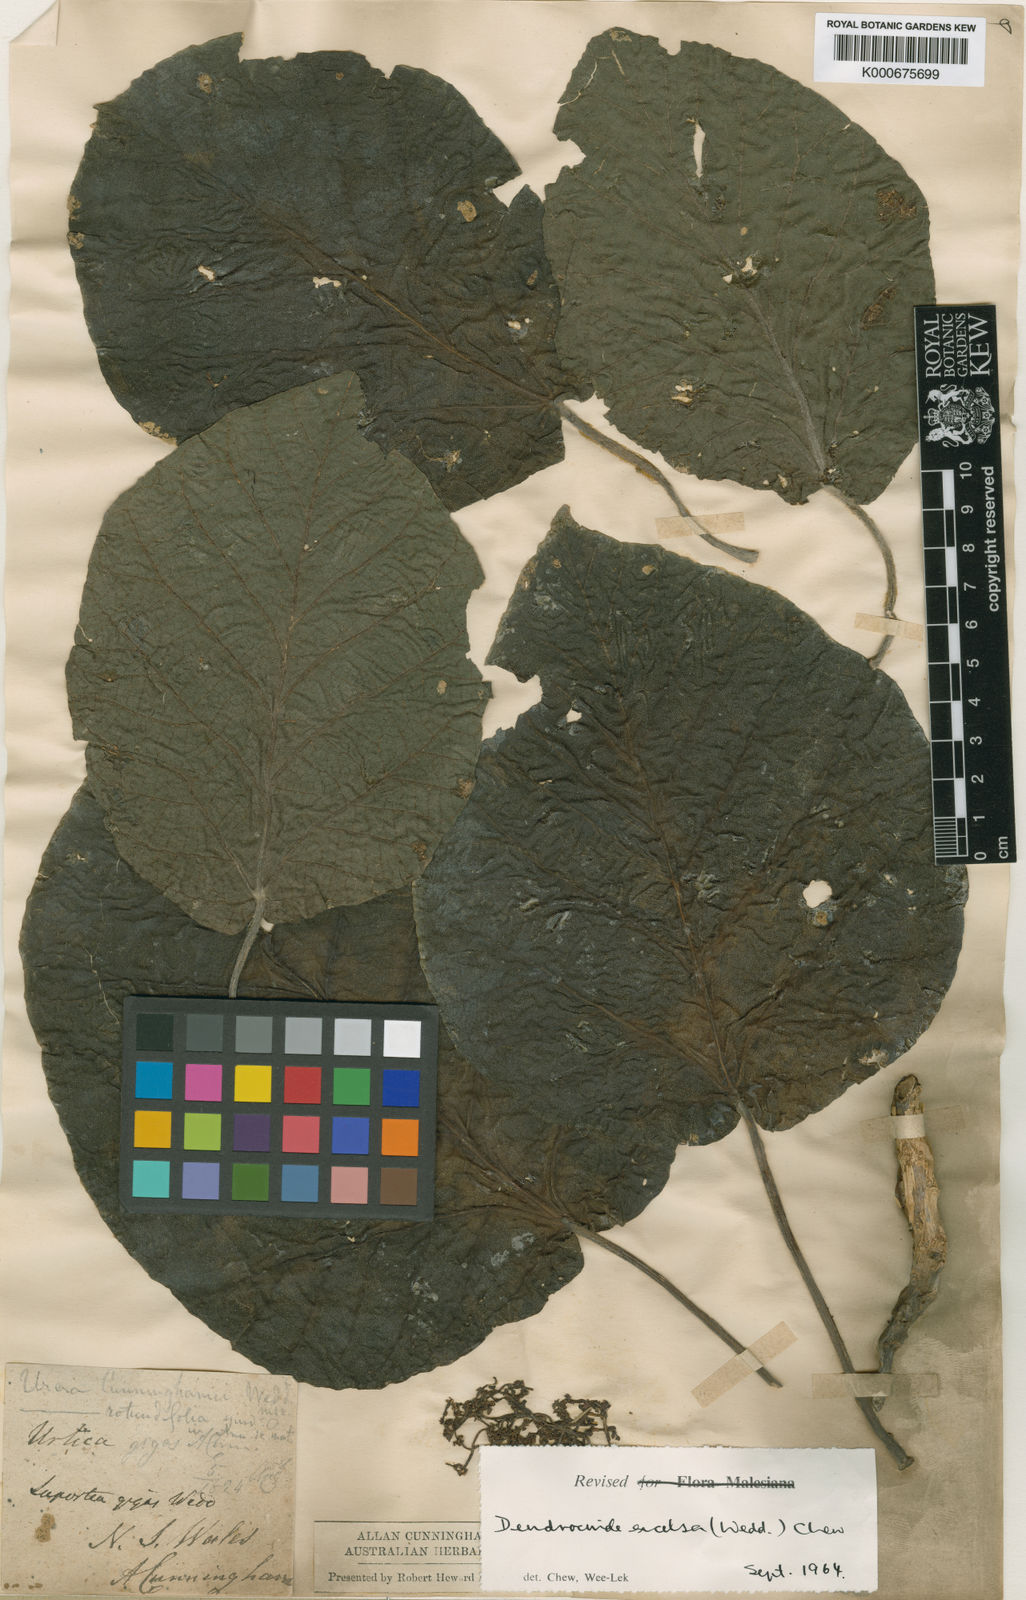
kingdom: Plantae
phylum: Tracheophyta
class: Magnoliopsida
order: Rosales
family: Urticaceae
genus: Dendrocnide
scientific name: Dendrocnide excelsa
